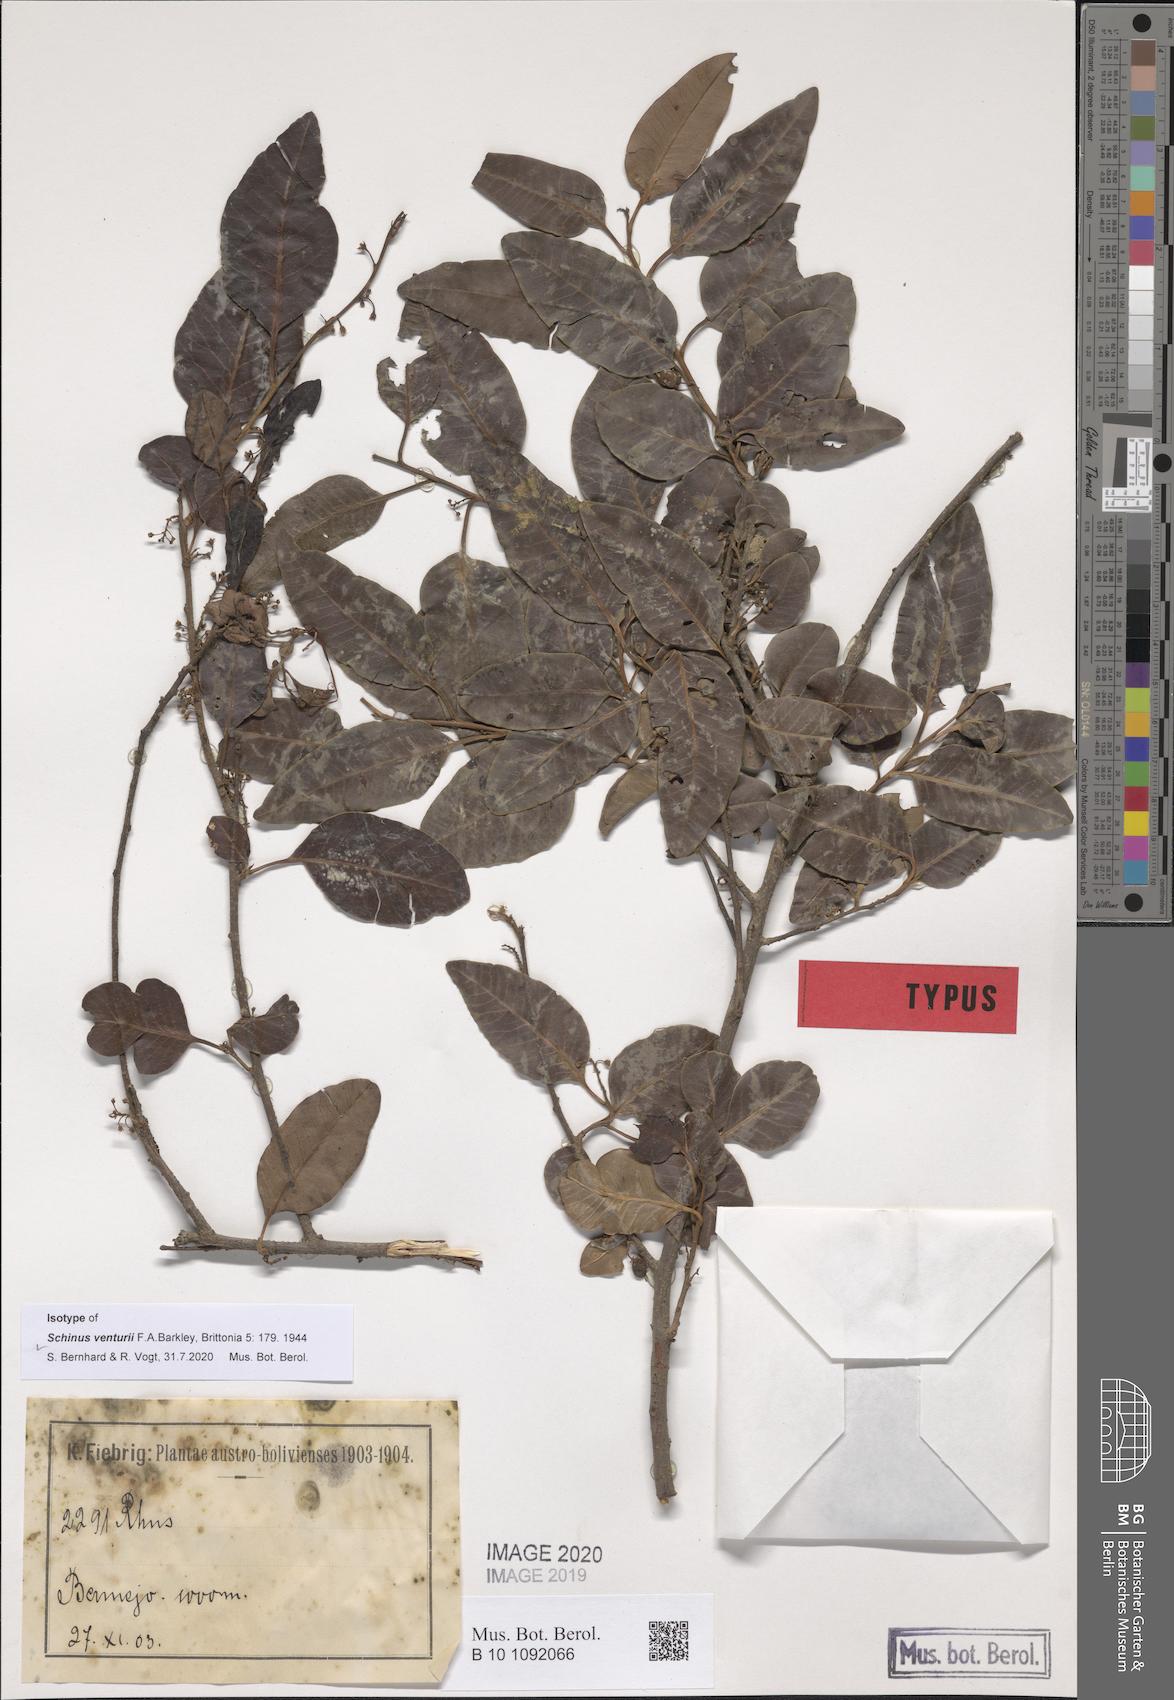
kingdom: Plantae
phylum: Tracheophyta
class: Magnoliopsida
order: Sapindales
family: Anacardiaceae
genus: Schinus
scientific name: Schinus venturii
